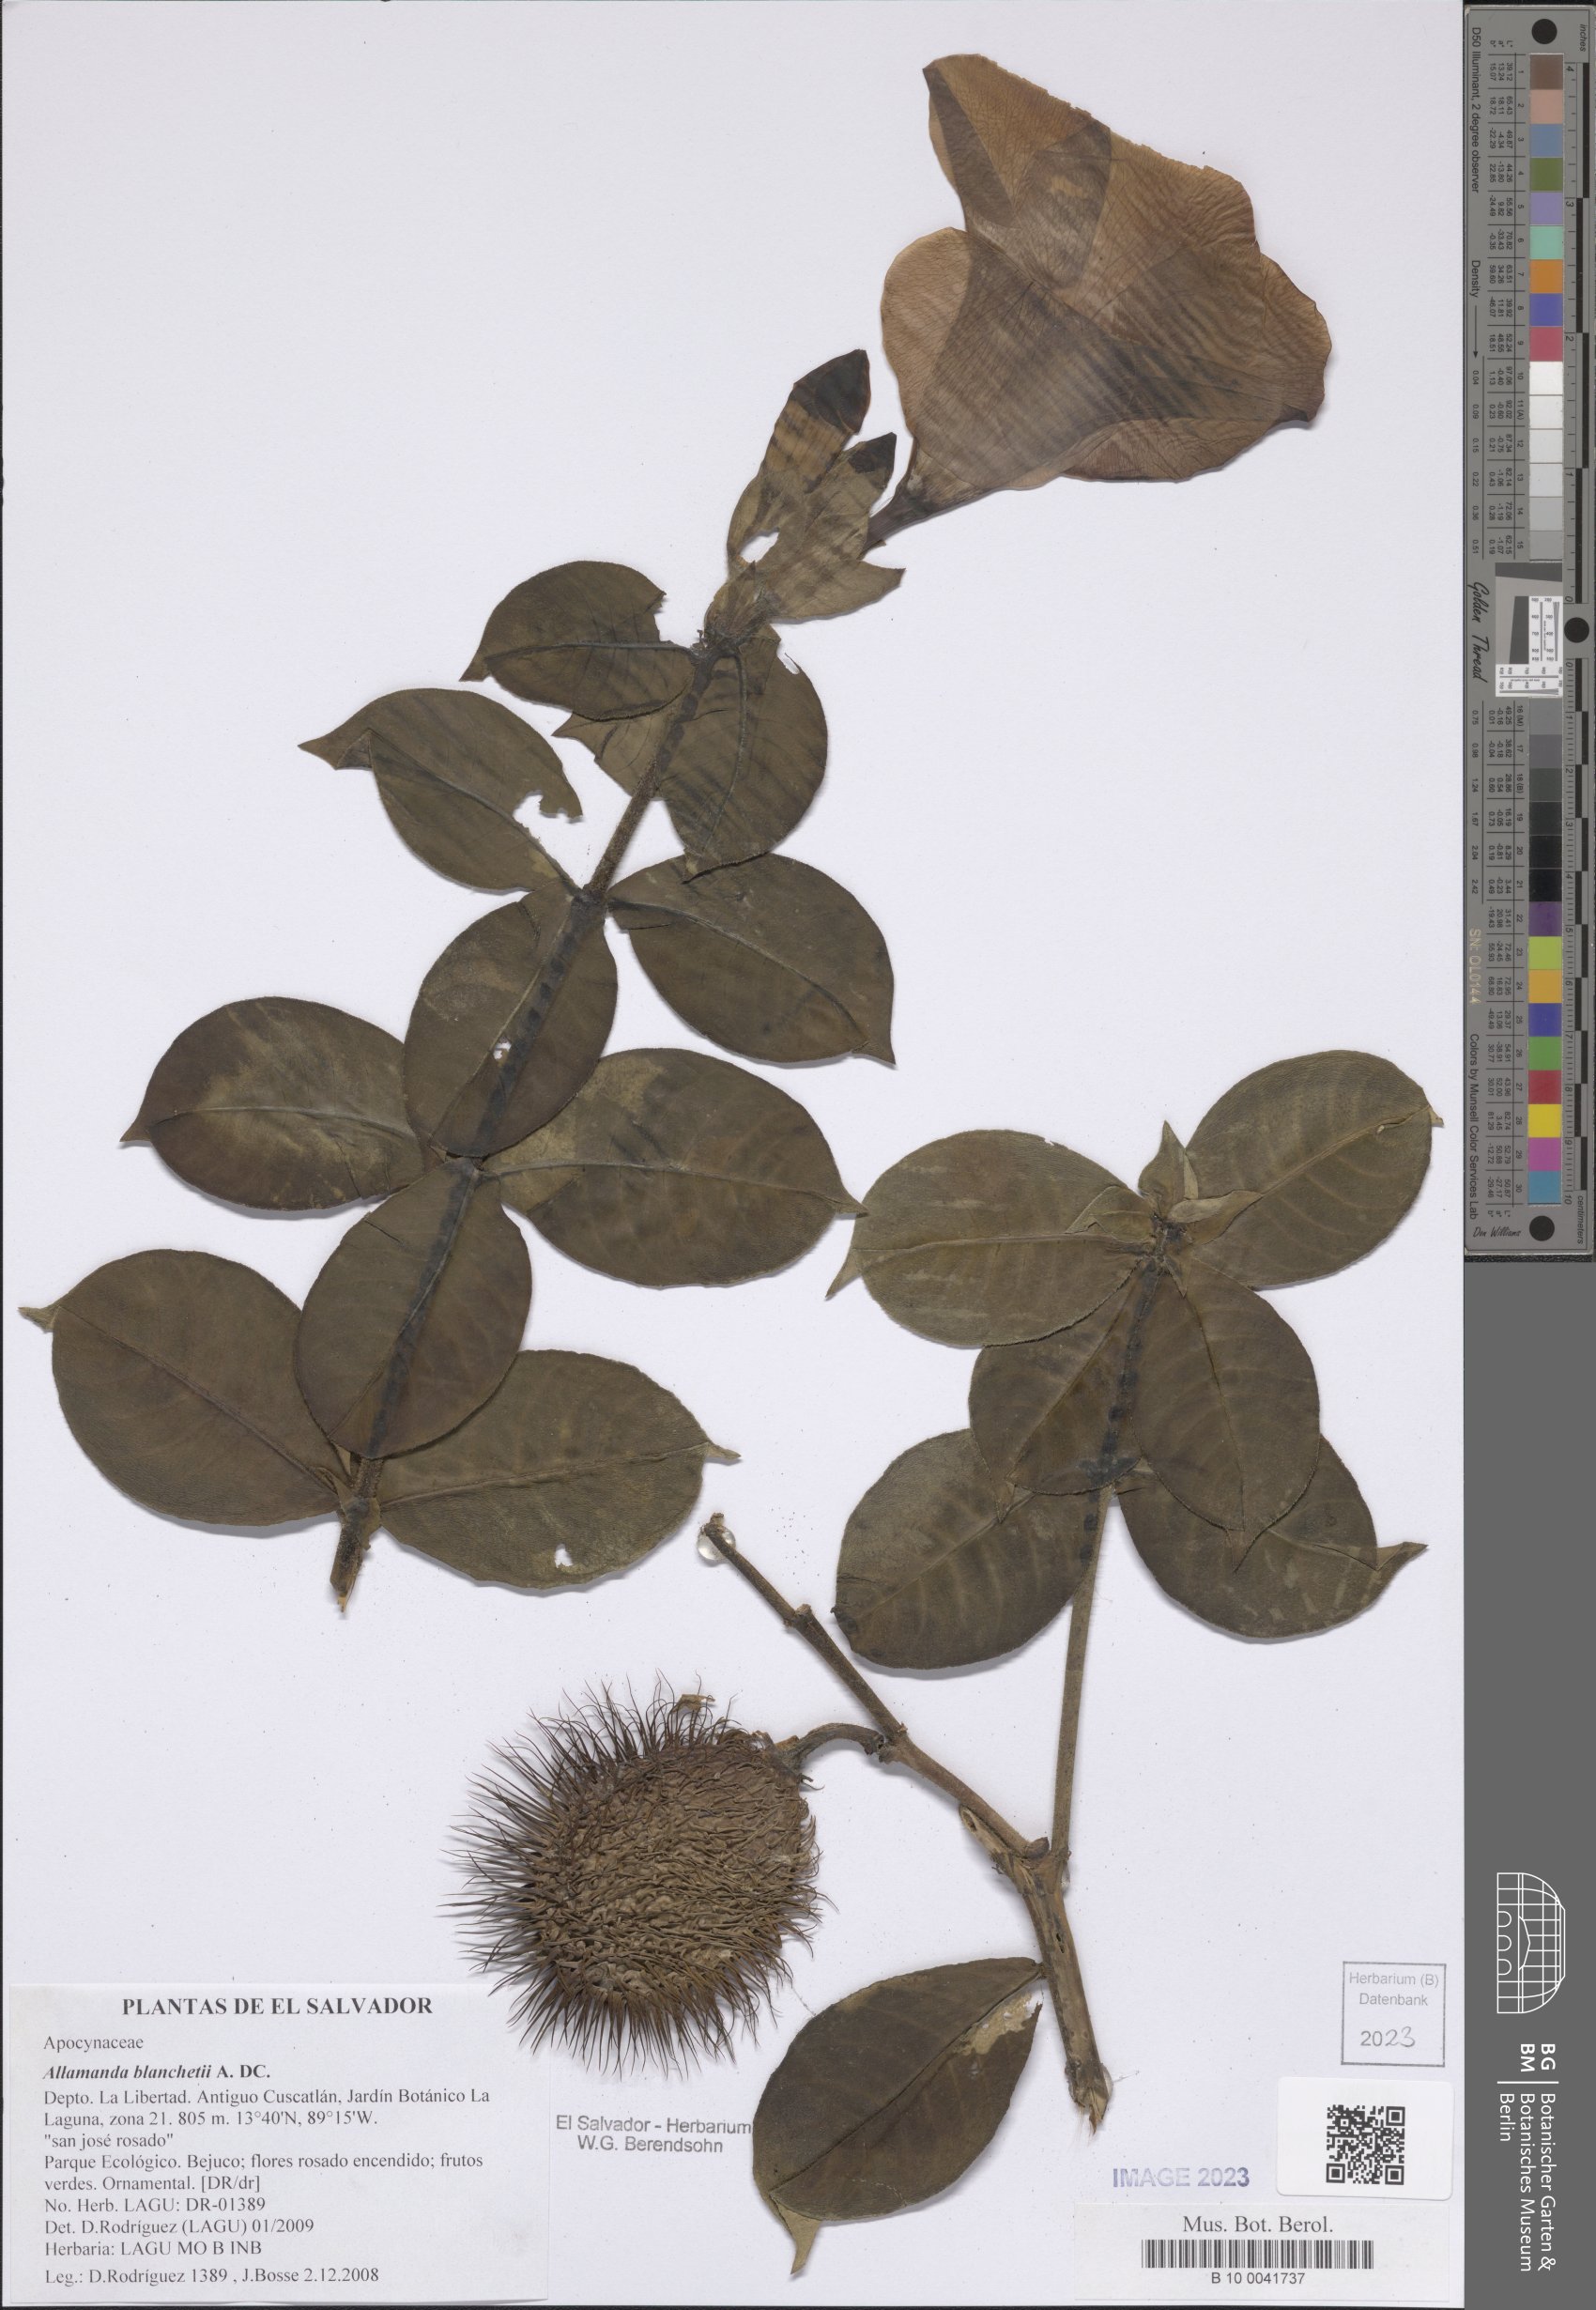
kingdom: Plantae
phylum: Tracheophyta
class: Magnoliopsida
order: Gentianales
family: Apocynaceae
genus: Allamanda
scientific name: Allamanda blanchetii
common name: Purple allamanda
